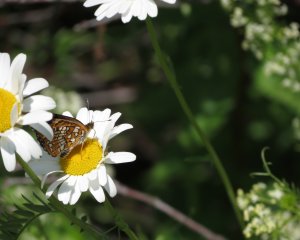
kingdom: Animalia
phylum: Arthropoda
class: Insecta
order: Lepidoptera
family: Nymphalidae
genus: Chlosyne
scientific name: Chlosyne harrisii
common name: Harris's Checkerspot
